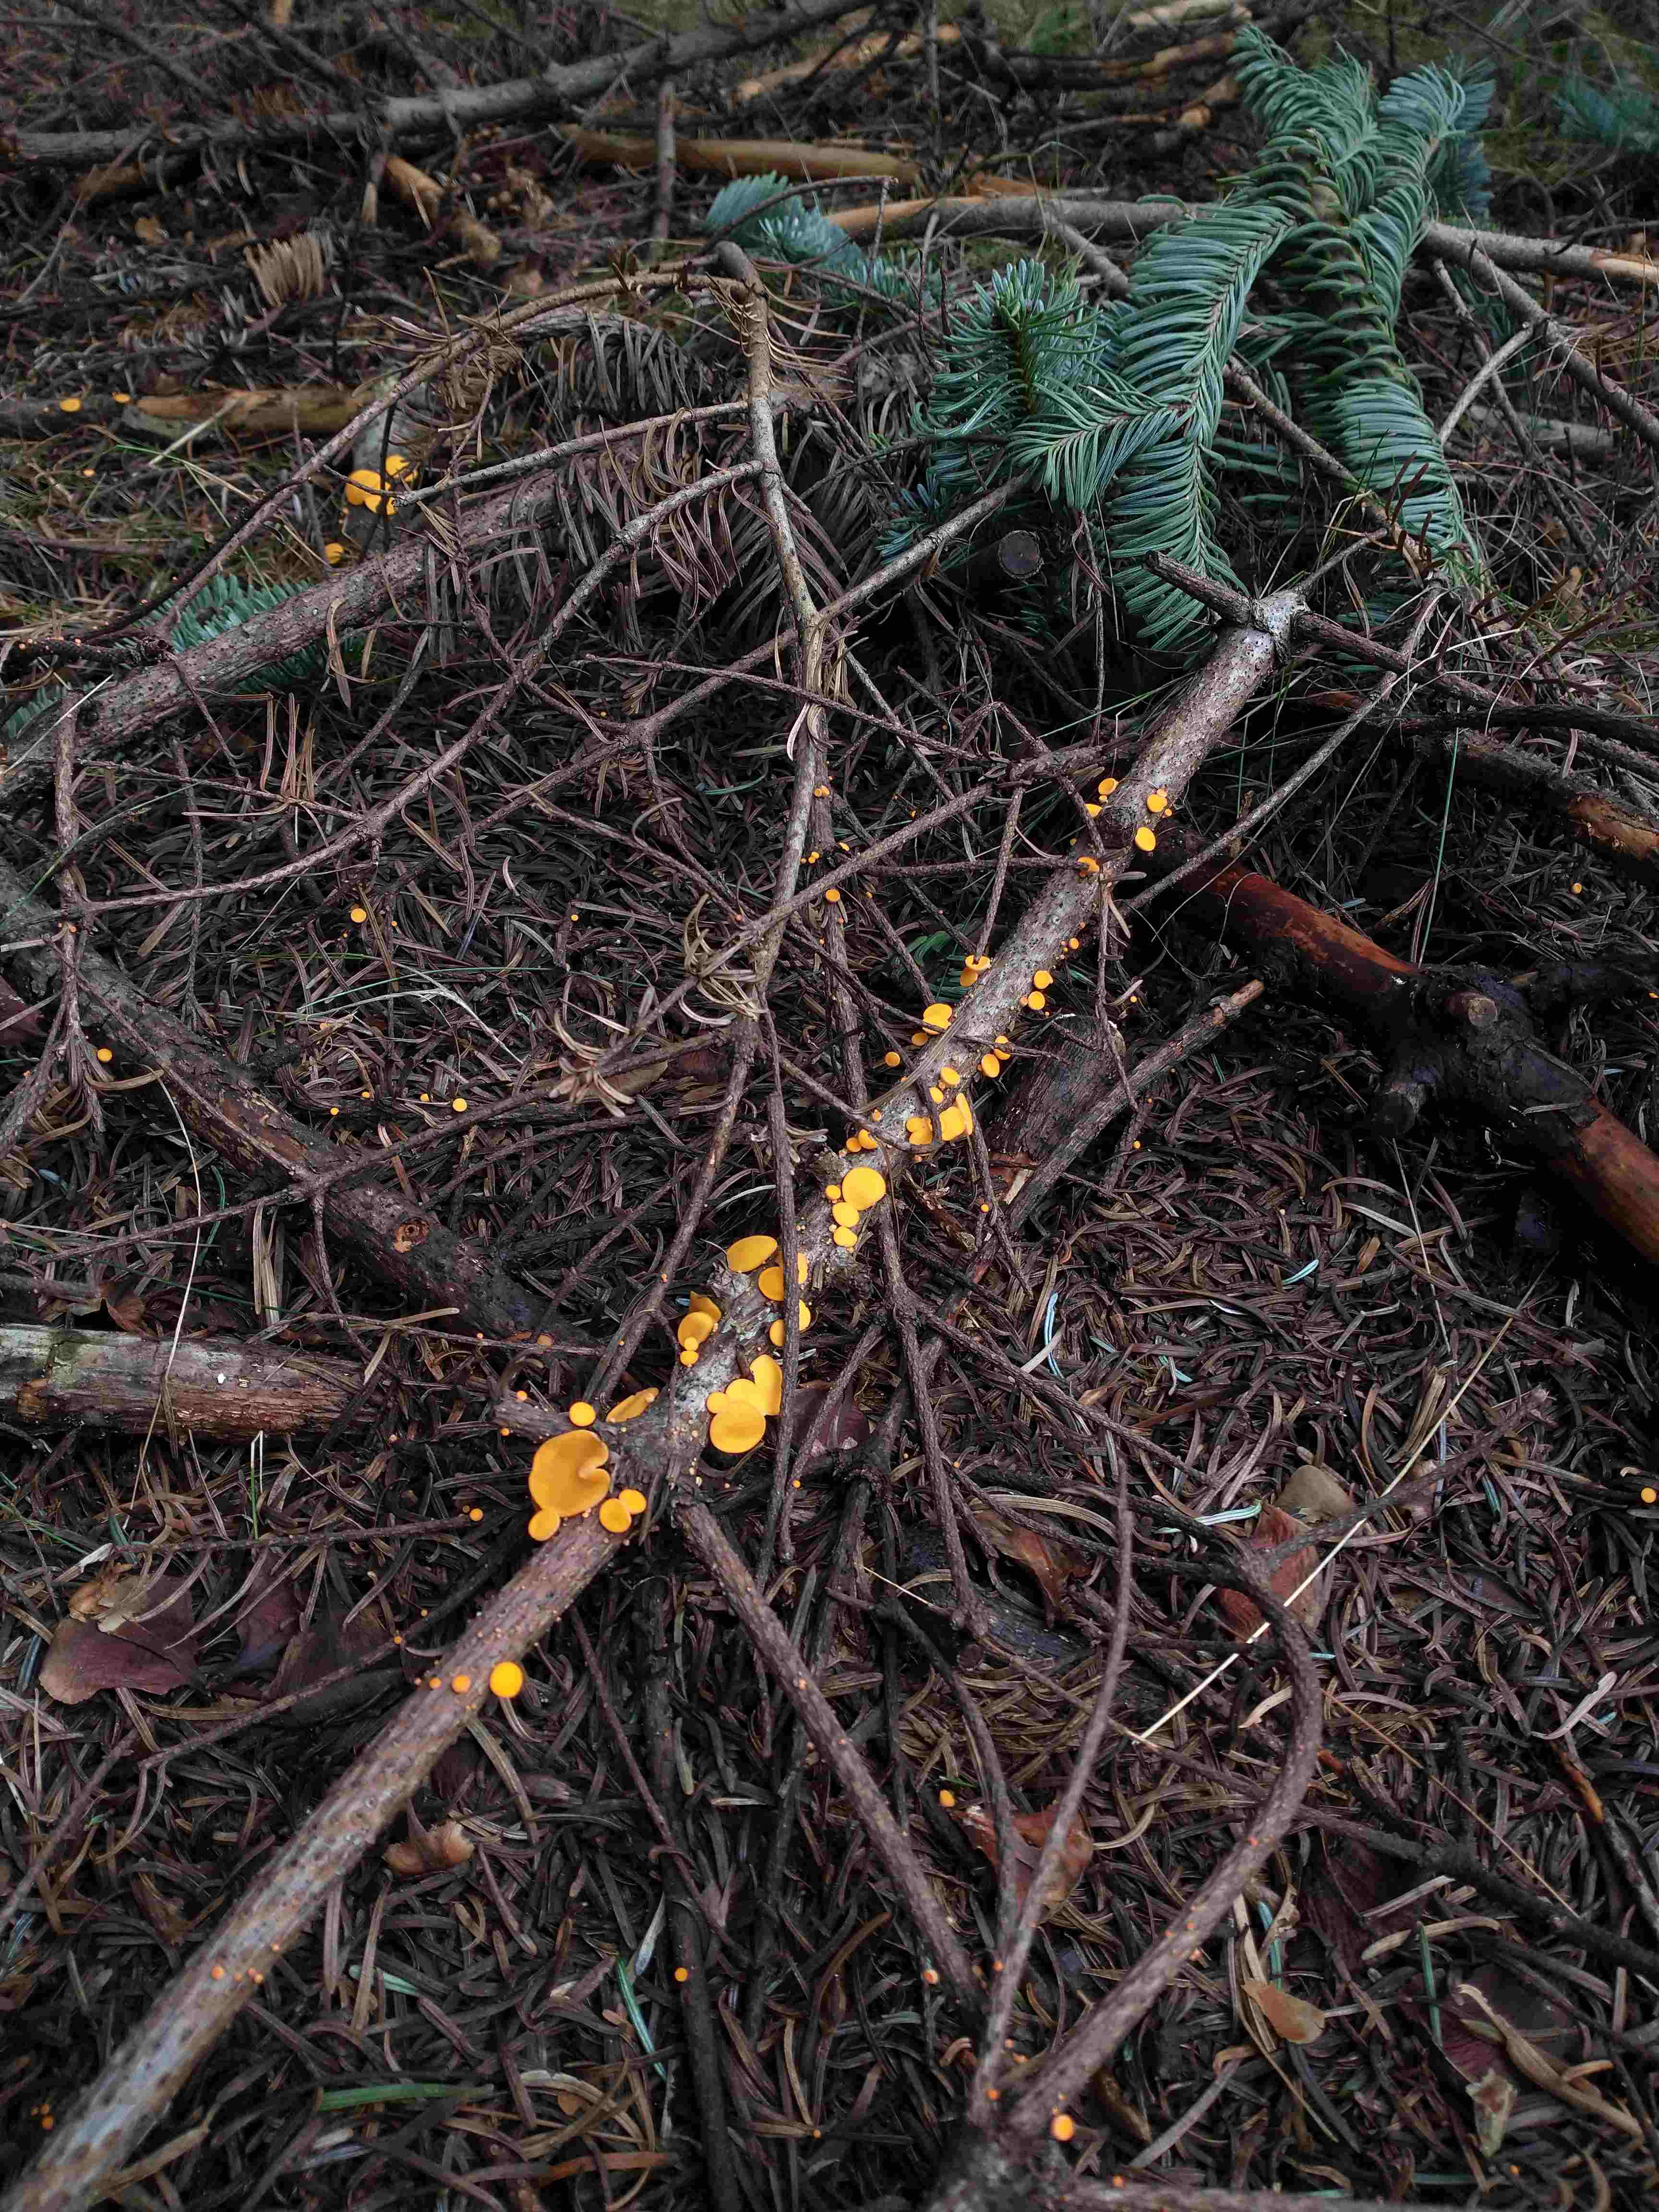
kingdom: Fungi
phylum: Ascomycota
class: Pezizomycetes
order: Pezizales
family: Sarcoscyphaceae
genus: Pithya
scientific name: Pithya vulgaris
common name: stor dukatbæger
